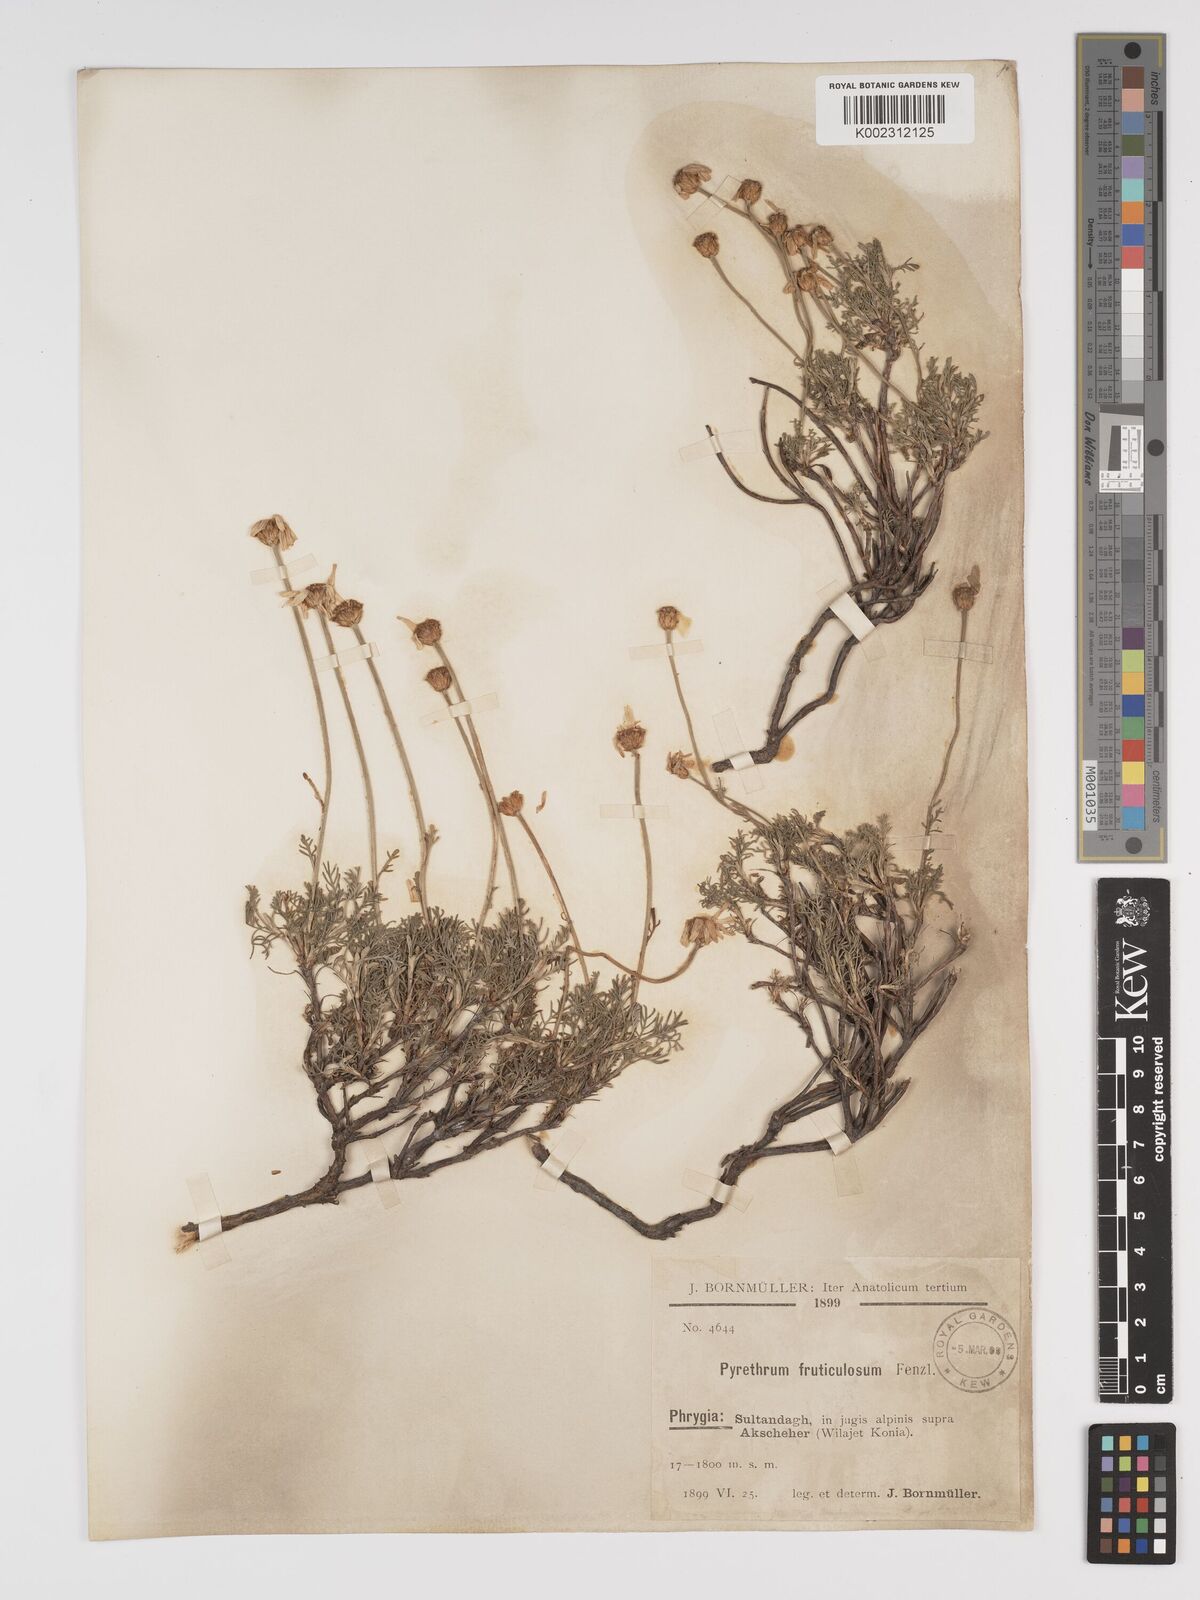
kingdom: Plantae
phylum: Tracheophyta
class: Magnoliopsida
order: Asterales
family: Asteraceae
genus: Ajania
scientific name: Ajania fruticulosa
